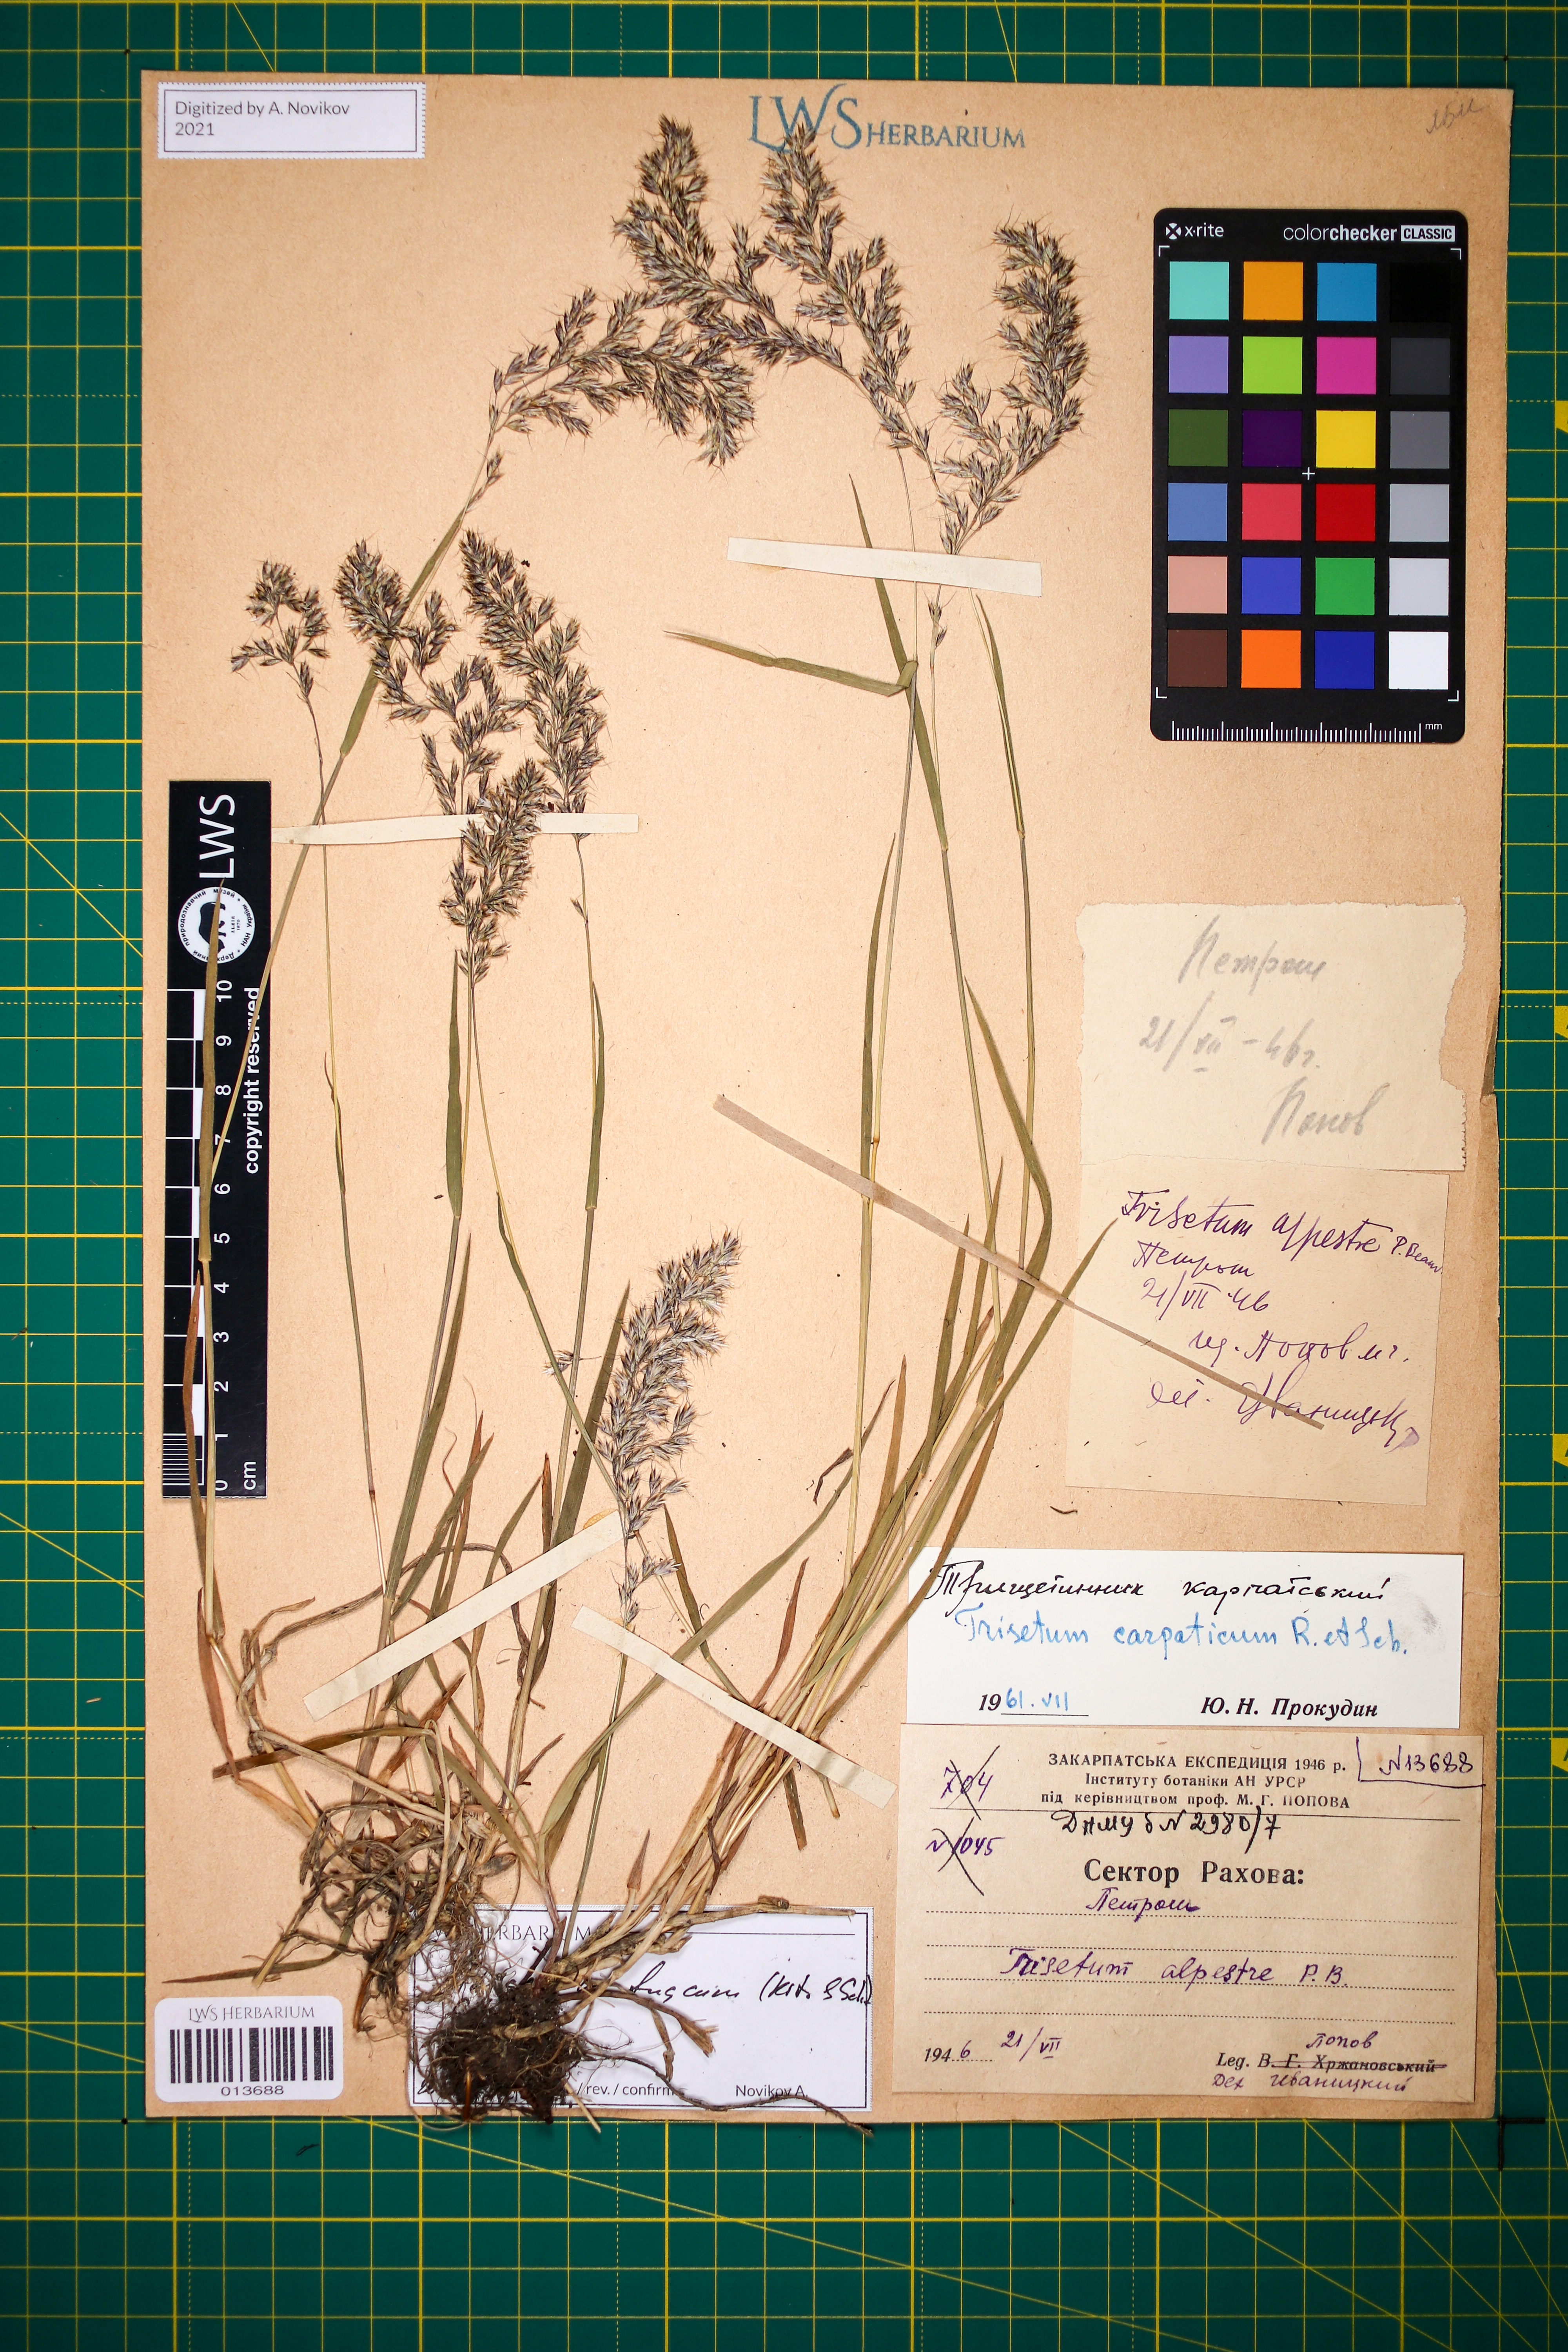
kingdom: Plantae
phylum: Tracheophyta
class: Liliopsida
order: Poales
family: Poaceae
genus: Trisetum
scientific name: Trisetum fuscum
